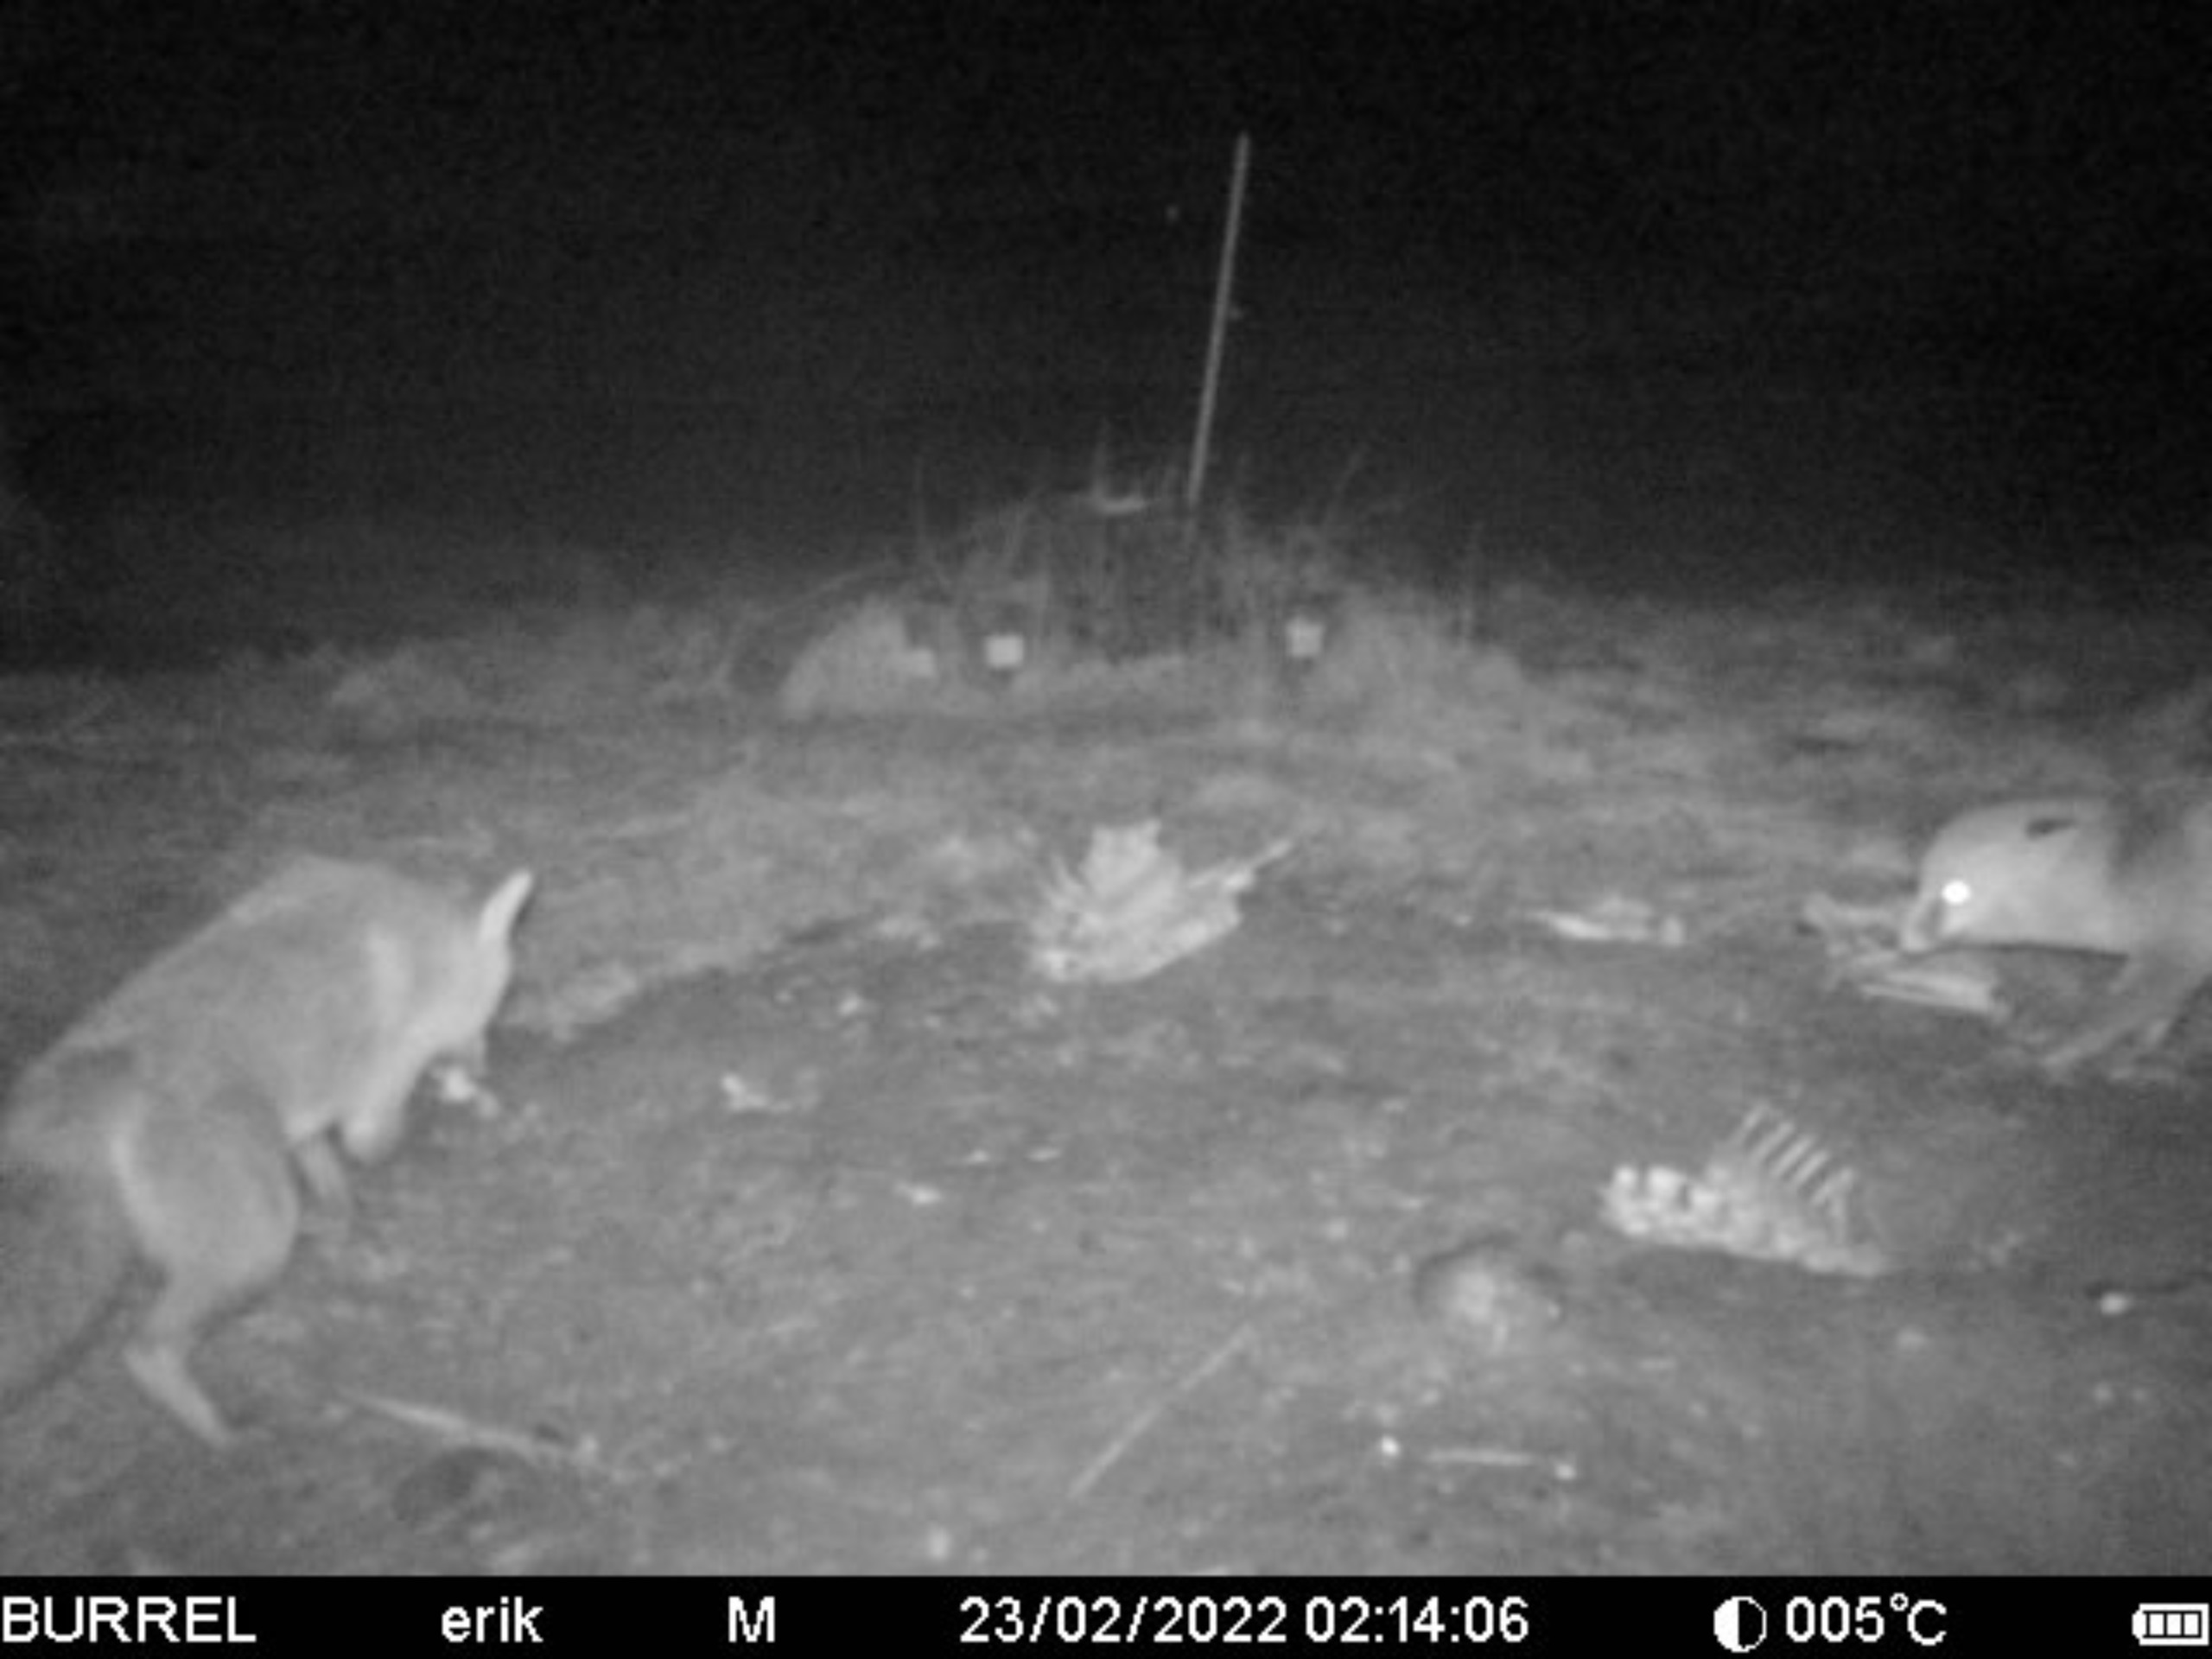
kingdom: Animalia
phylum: Chordata
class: Mammalia
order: Carnivora
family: Canidae
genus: Vulpes
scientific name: Vulpes vulpes
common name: Ræv
